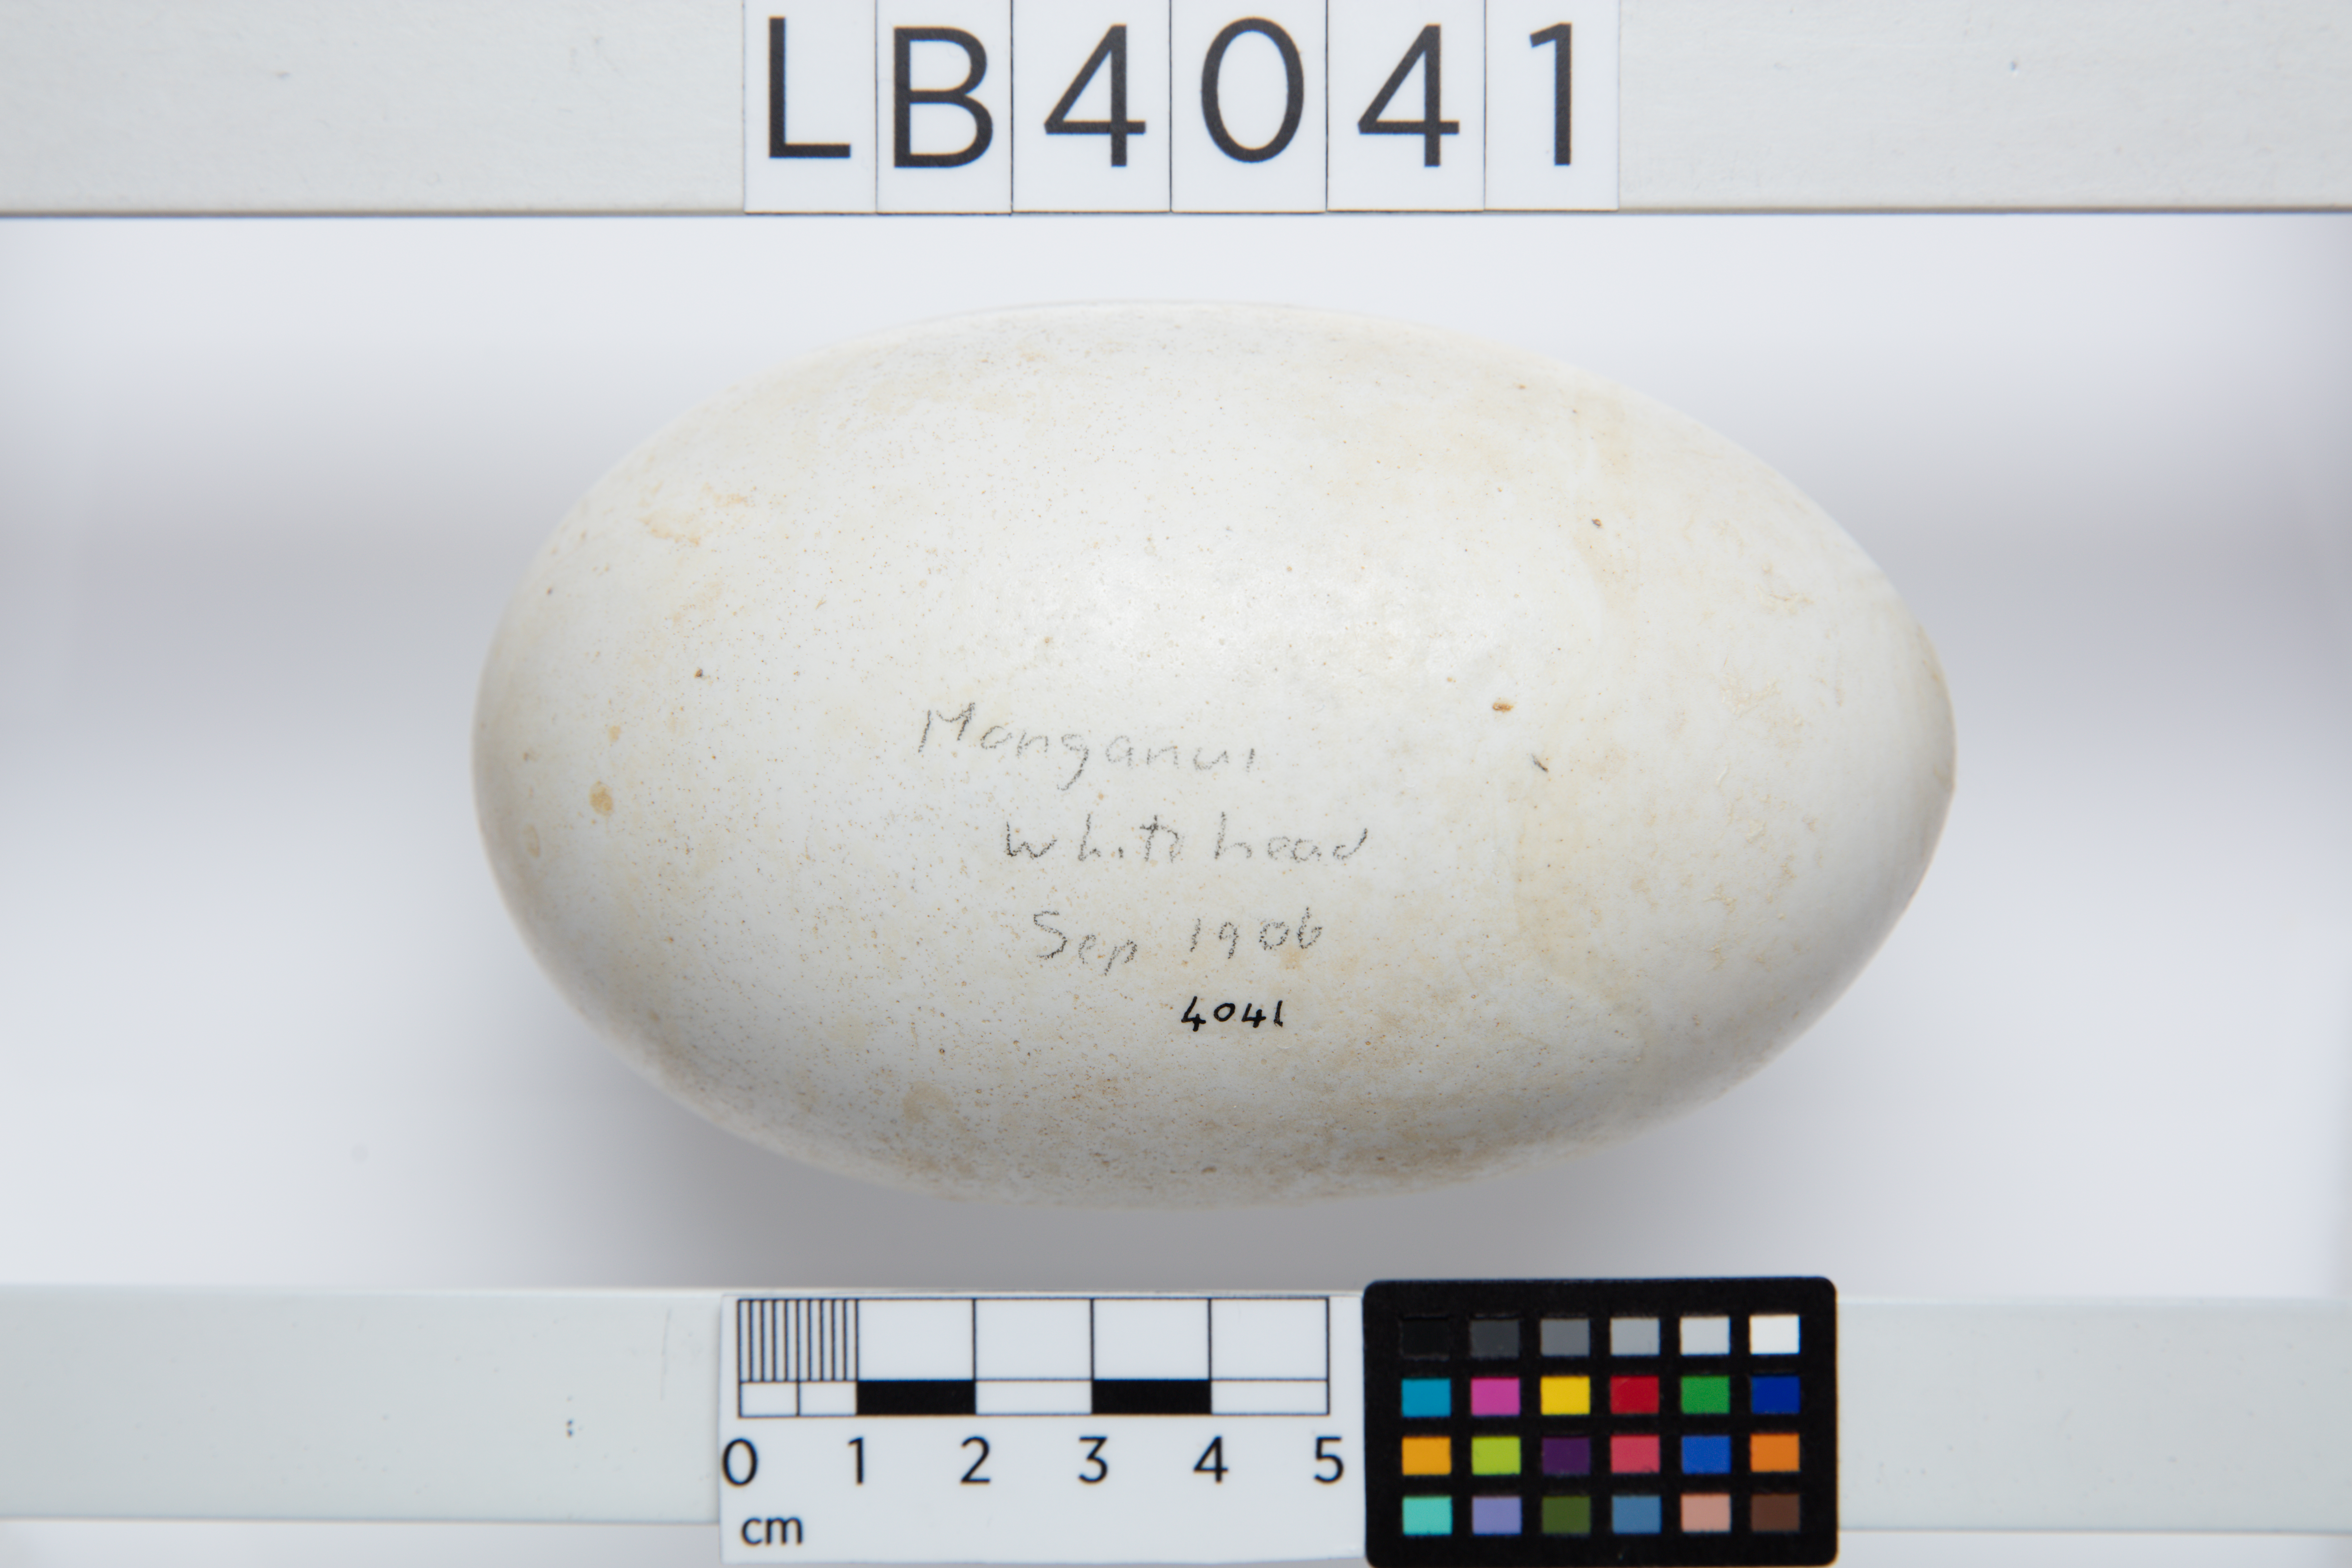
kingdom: Animalia
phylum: Chordata
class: Aves
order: Apterygiformes
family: Apterygidae
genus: Apteryx
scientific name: Apteryx mantelli
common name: North island brown kiwi
